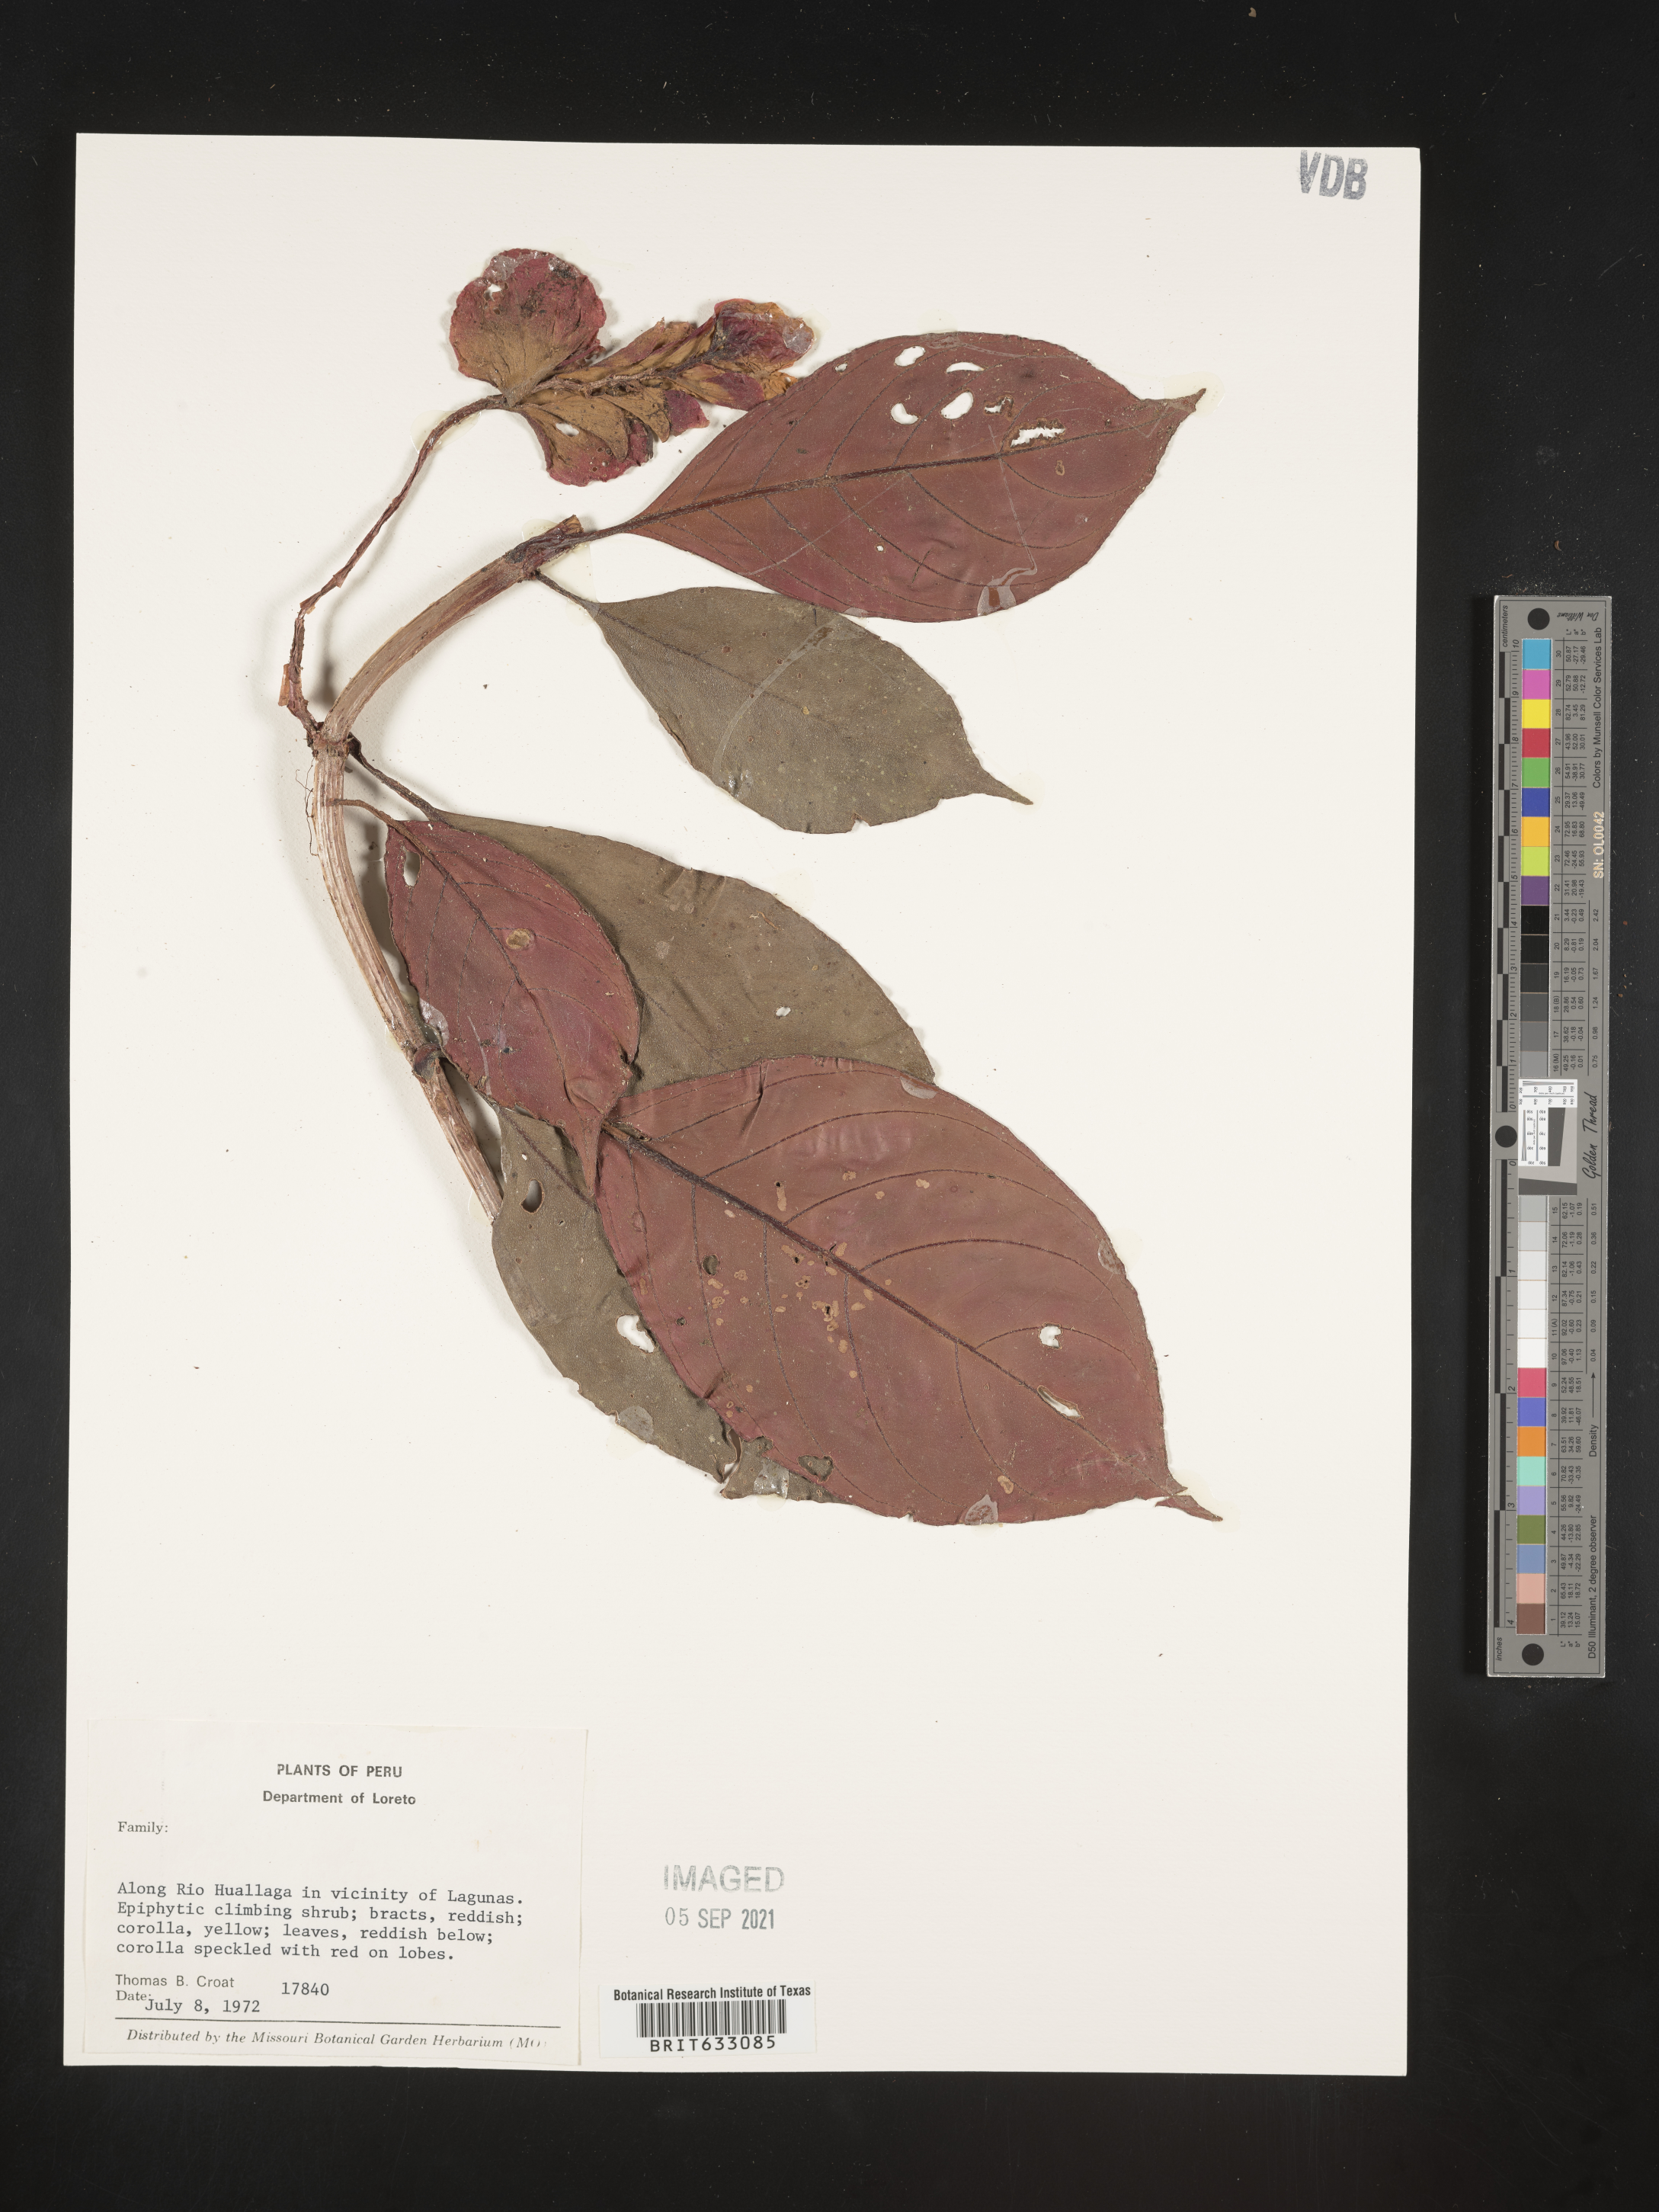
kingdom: Plantae
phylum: Tracheophyta
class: Magnoliopsida
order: Lamiales
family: Gesneriaceae
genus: Drymonia
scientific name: Drymonia
